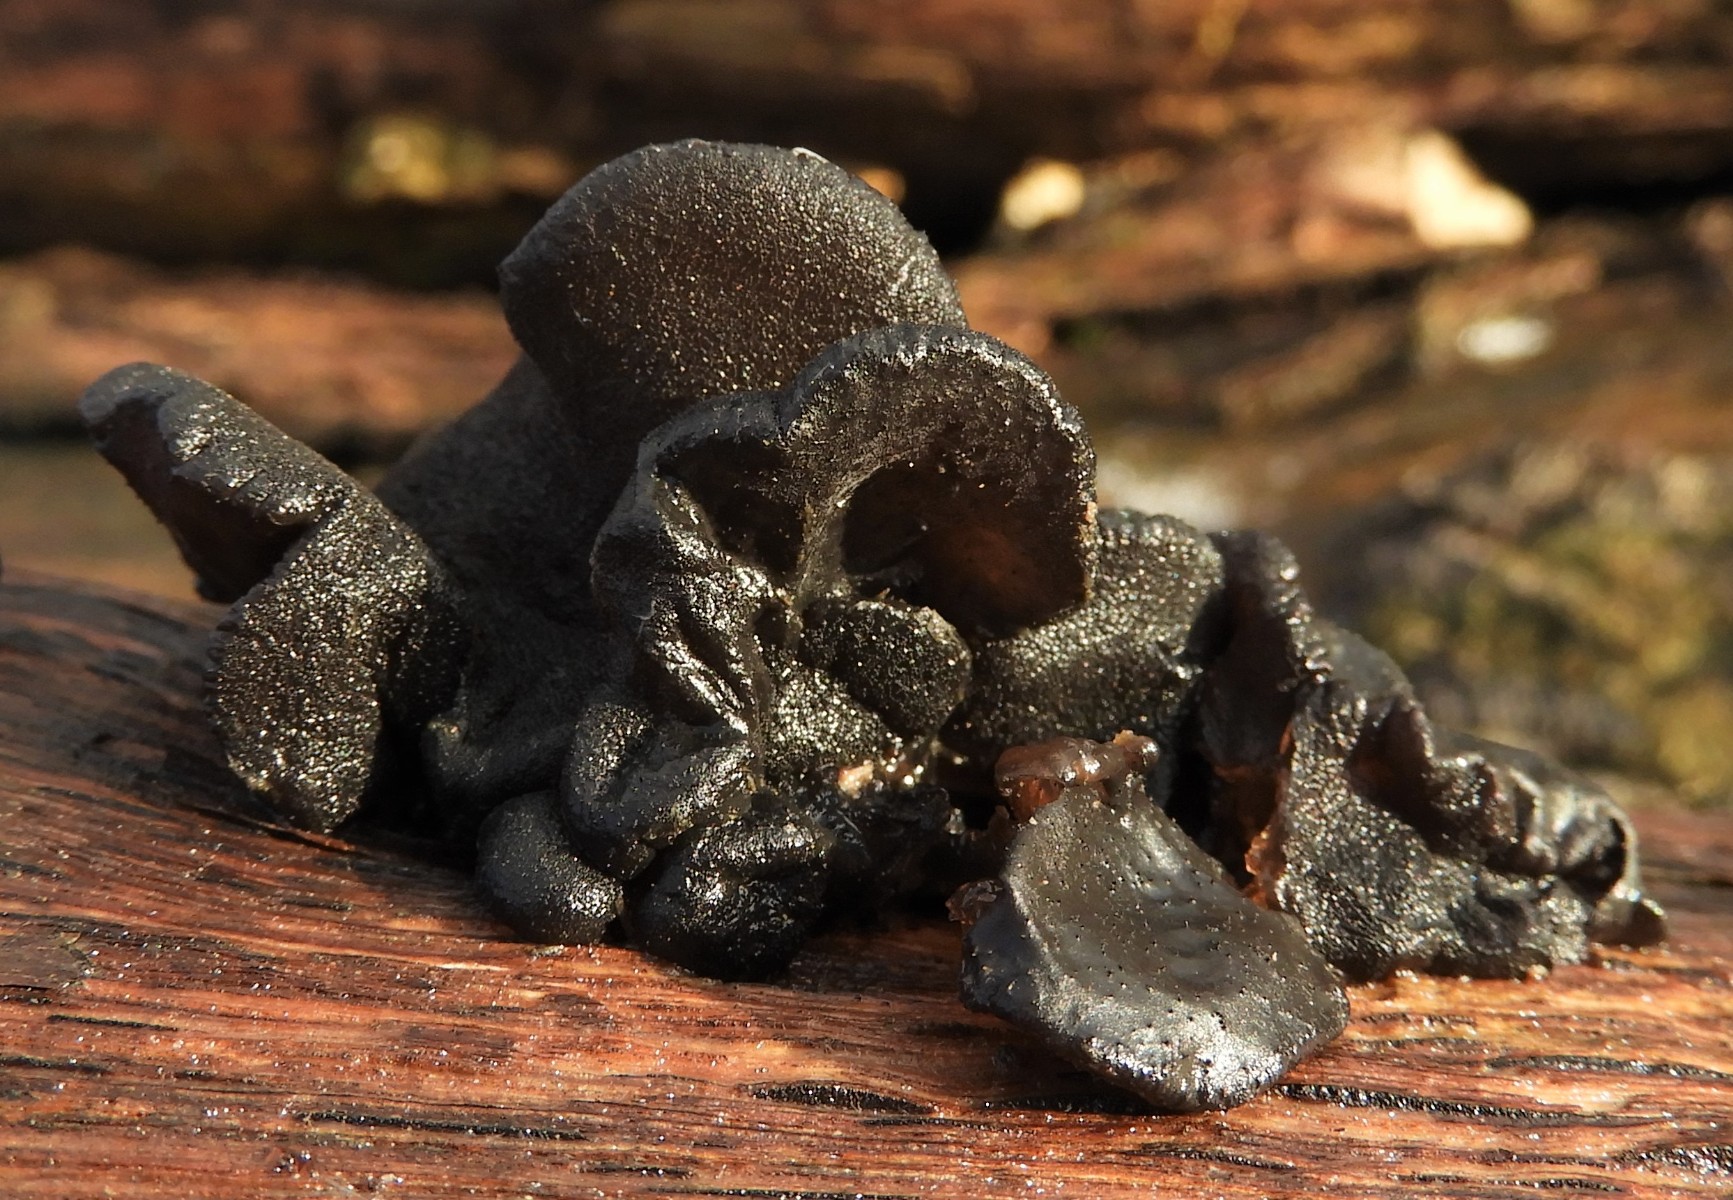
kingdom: Fungi
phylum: Basidiomycota
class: Agaricomycetes
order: Auriculariales
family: Auriculariaceae
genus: Exidia
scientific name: Exidia glandulosa
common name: ege-bævretop
